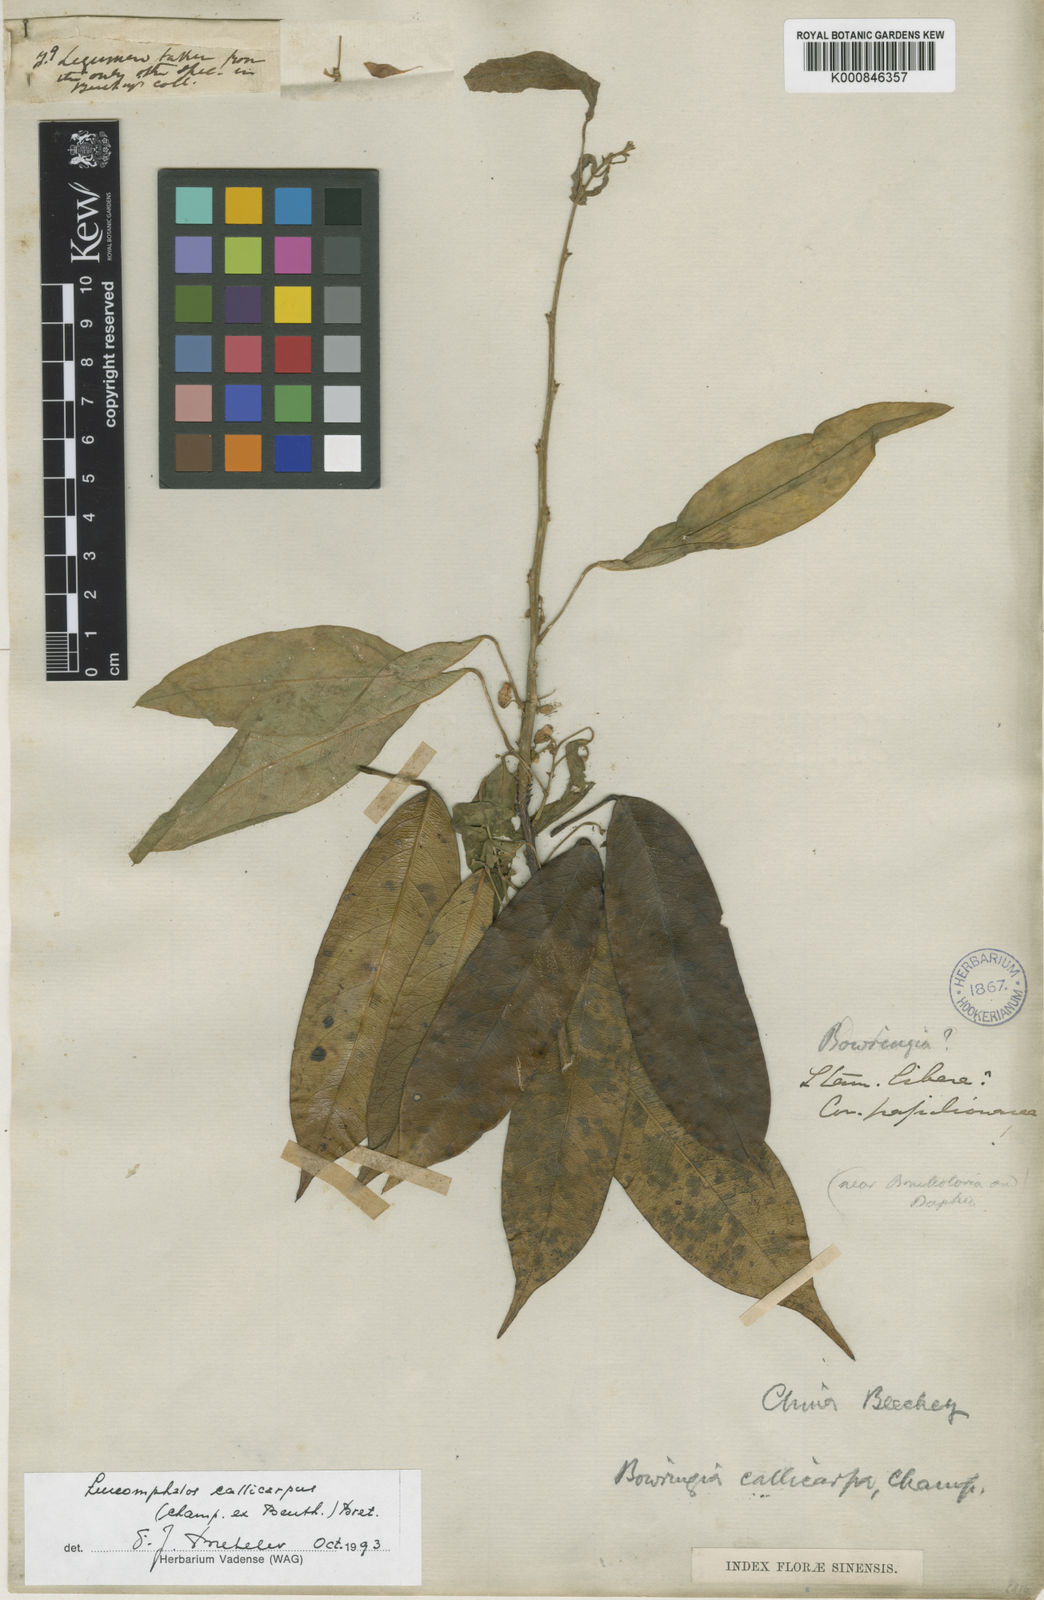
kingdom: Plantae
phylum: Tracheophyta
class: Magnoliopsida
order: Fabales
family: Fabaceae
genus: Bowringia
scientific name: Bowringia callicarpa
